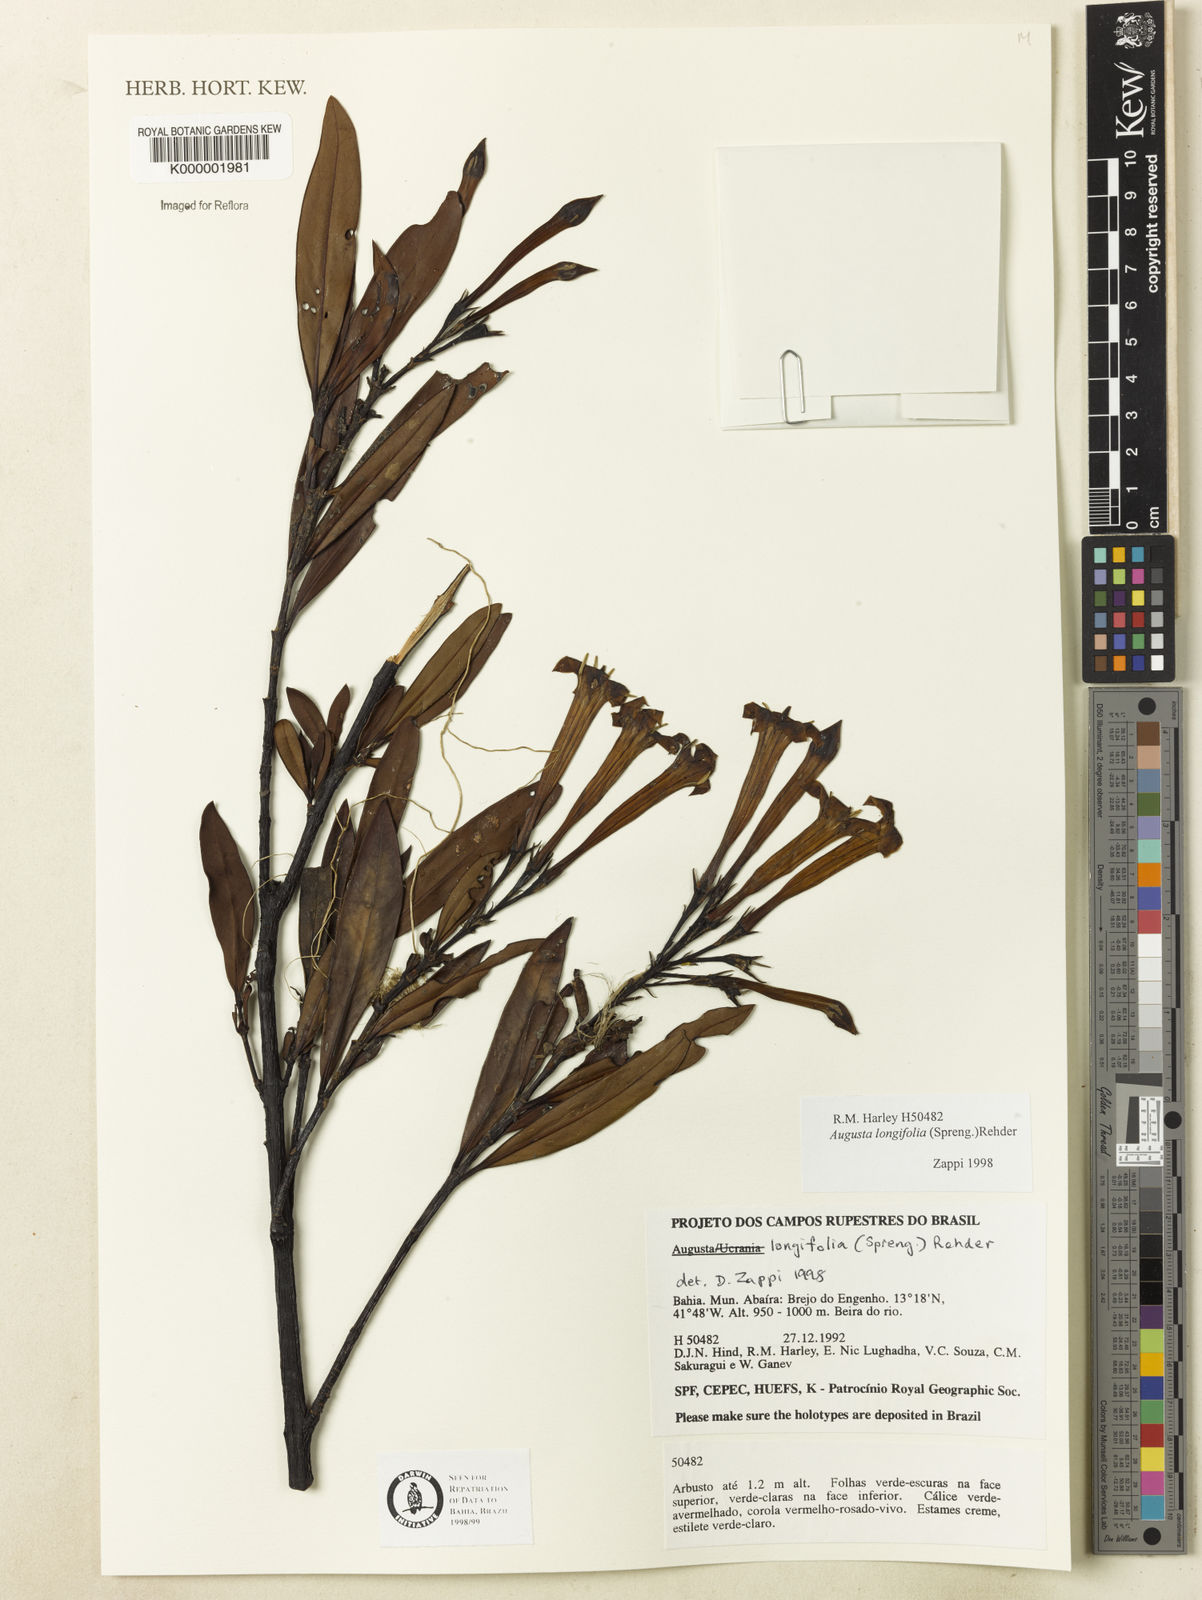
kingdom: Plantae
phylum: Tracheophyta
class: Magnoliopsida
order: Gentianales
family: Rubiaceae
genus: Augusta
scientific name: Augusta longifolia
